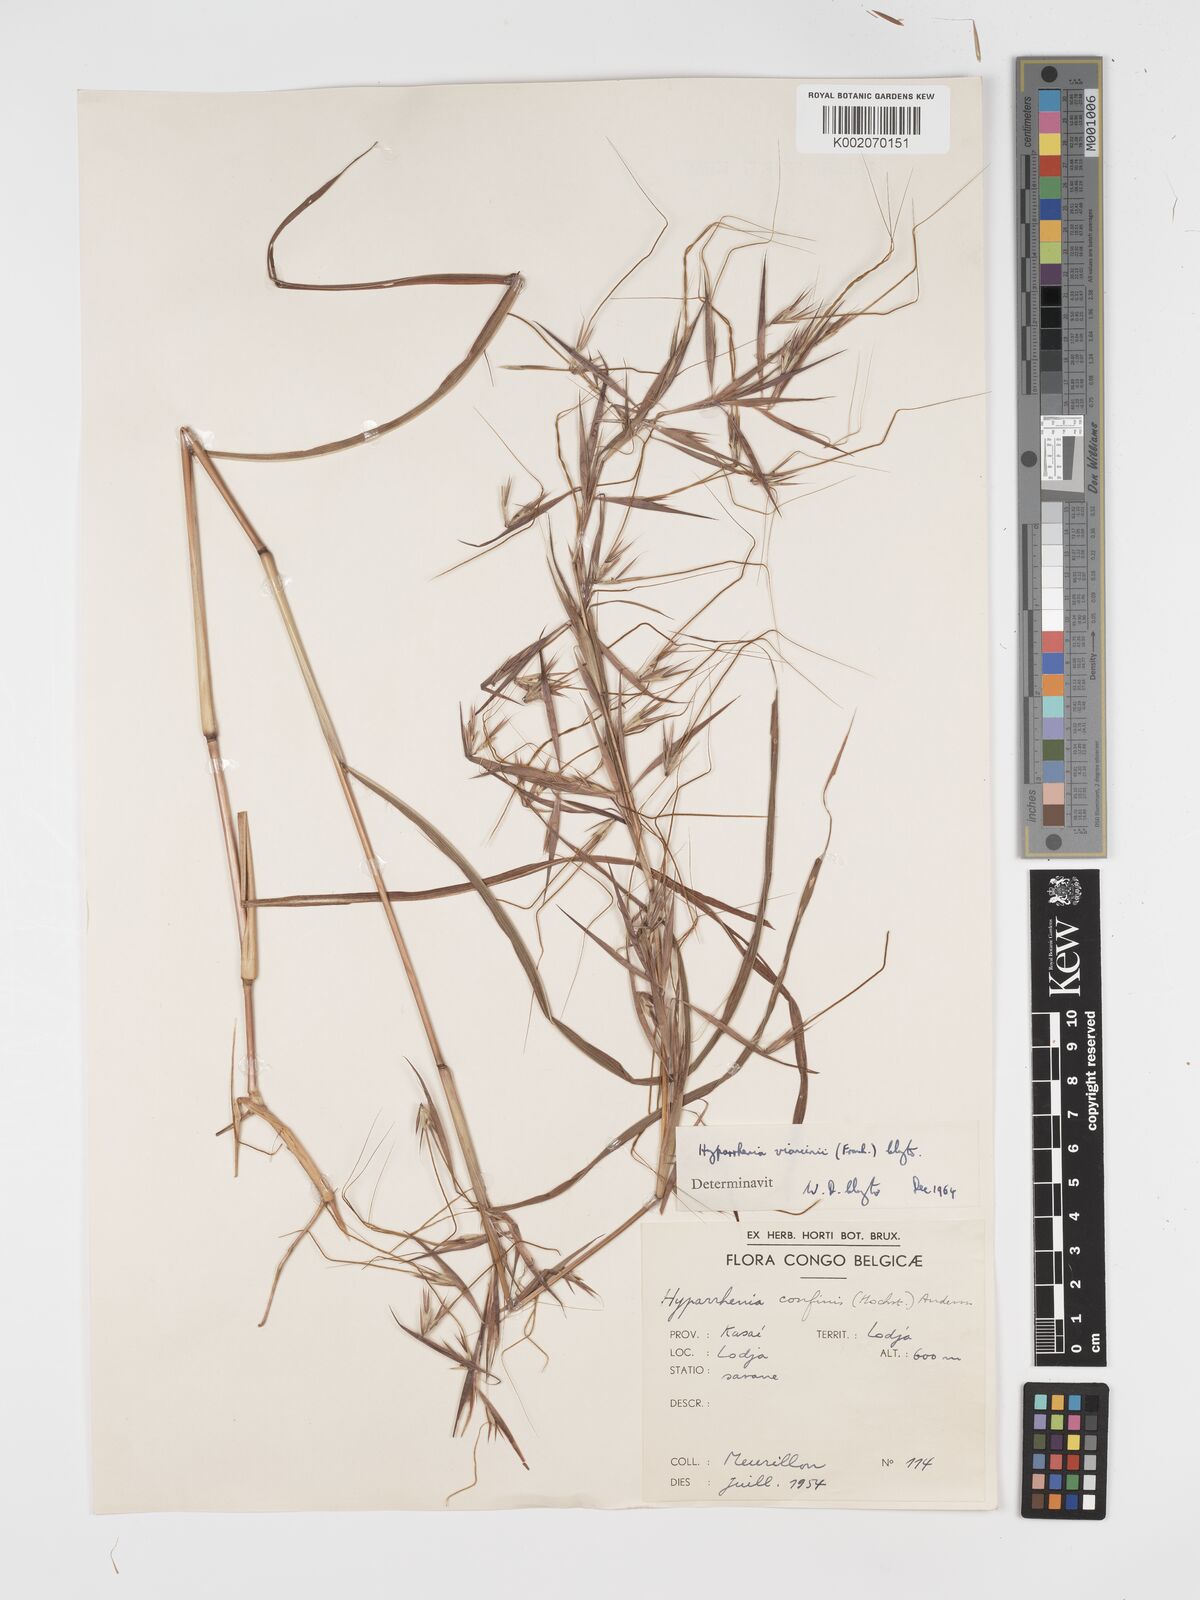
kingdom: Plantae
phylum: Tracheophyta
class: Liliopsida
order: Poales
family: Poaceae
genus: Hyparrhenia
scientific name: Hyparrhenia niariensis
